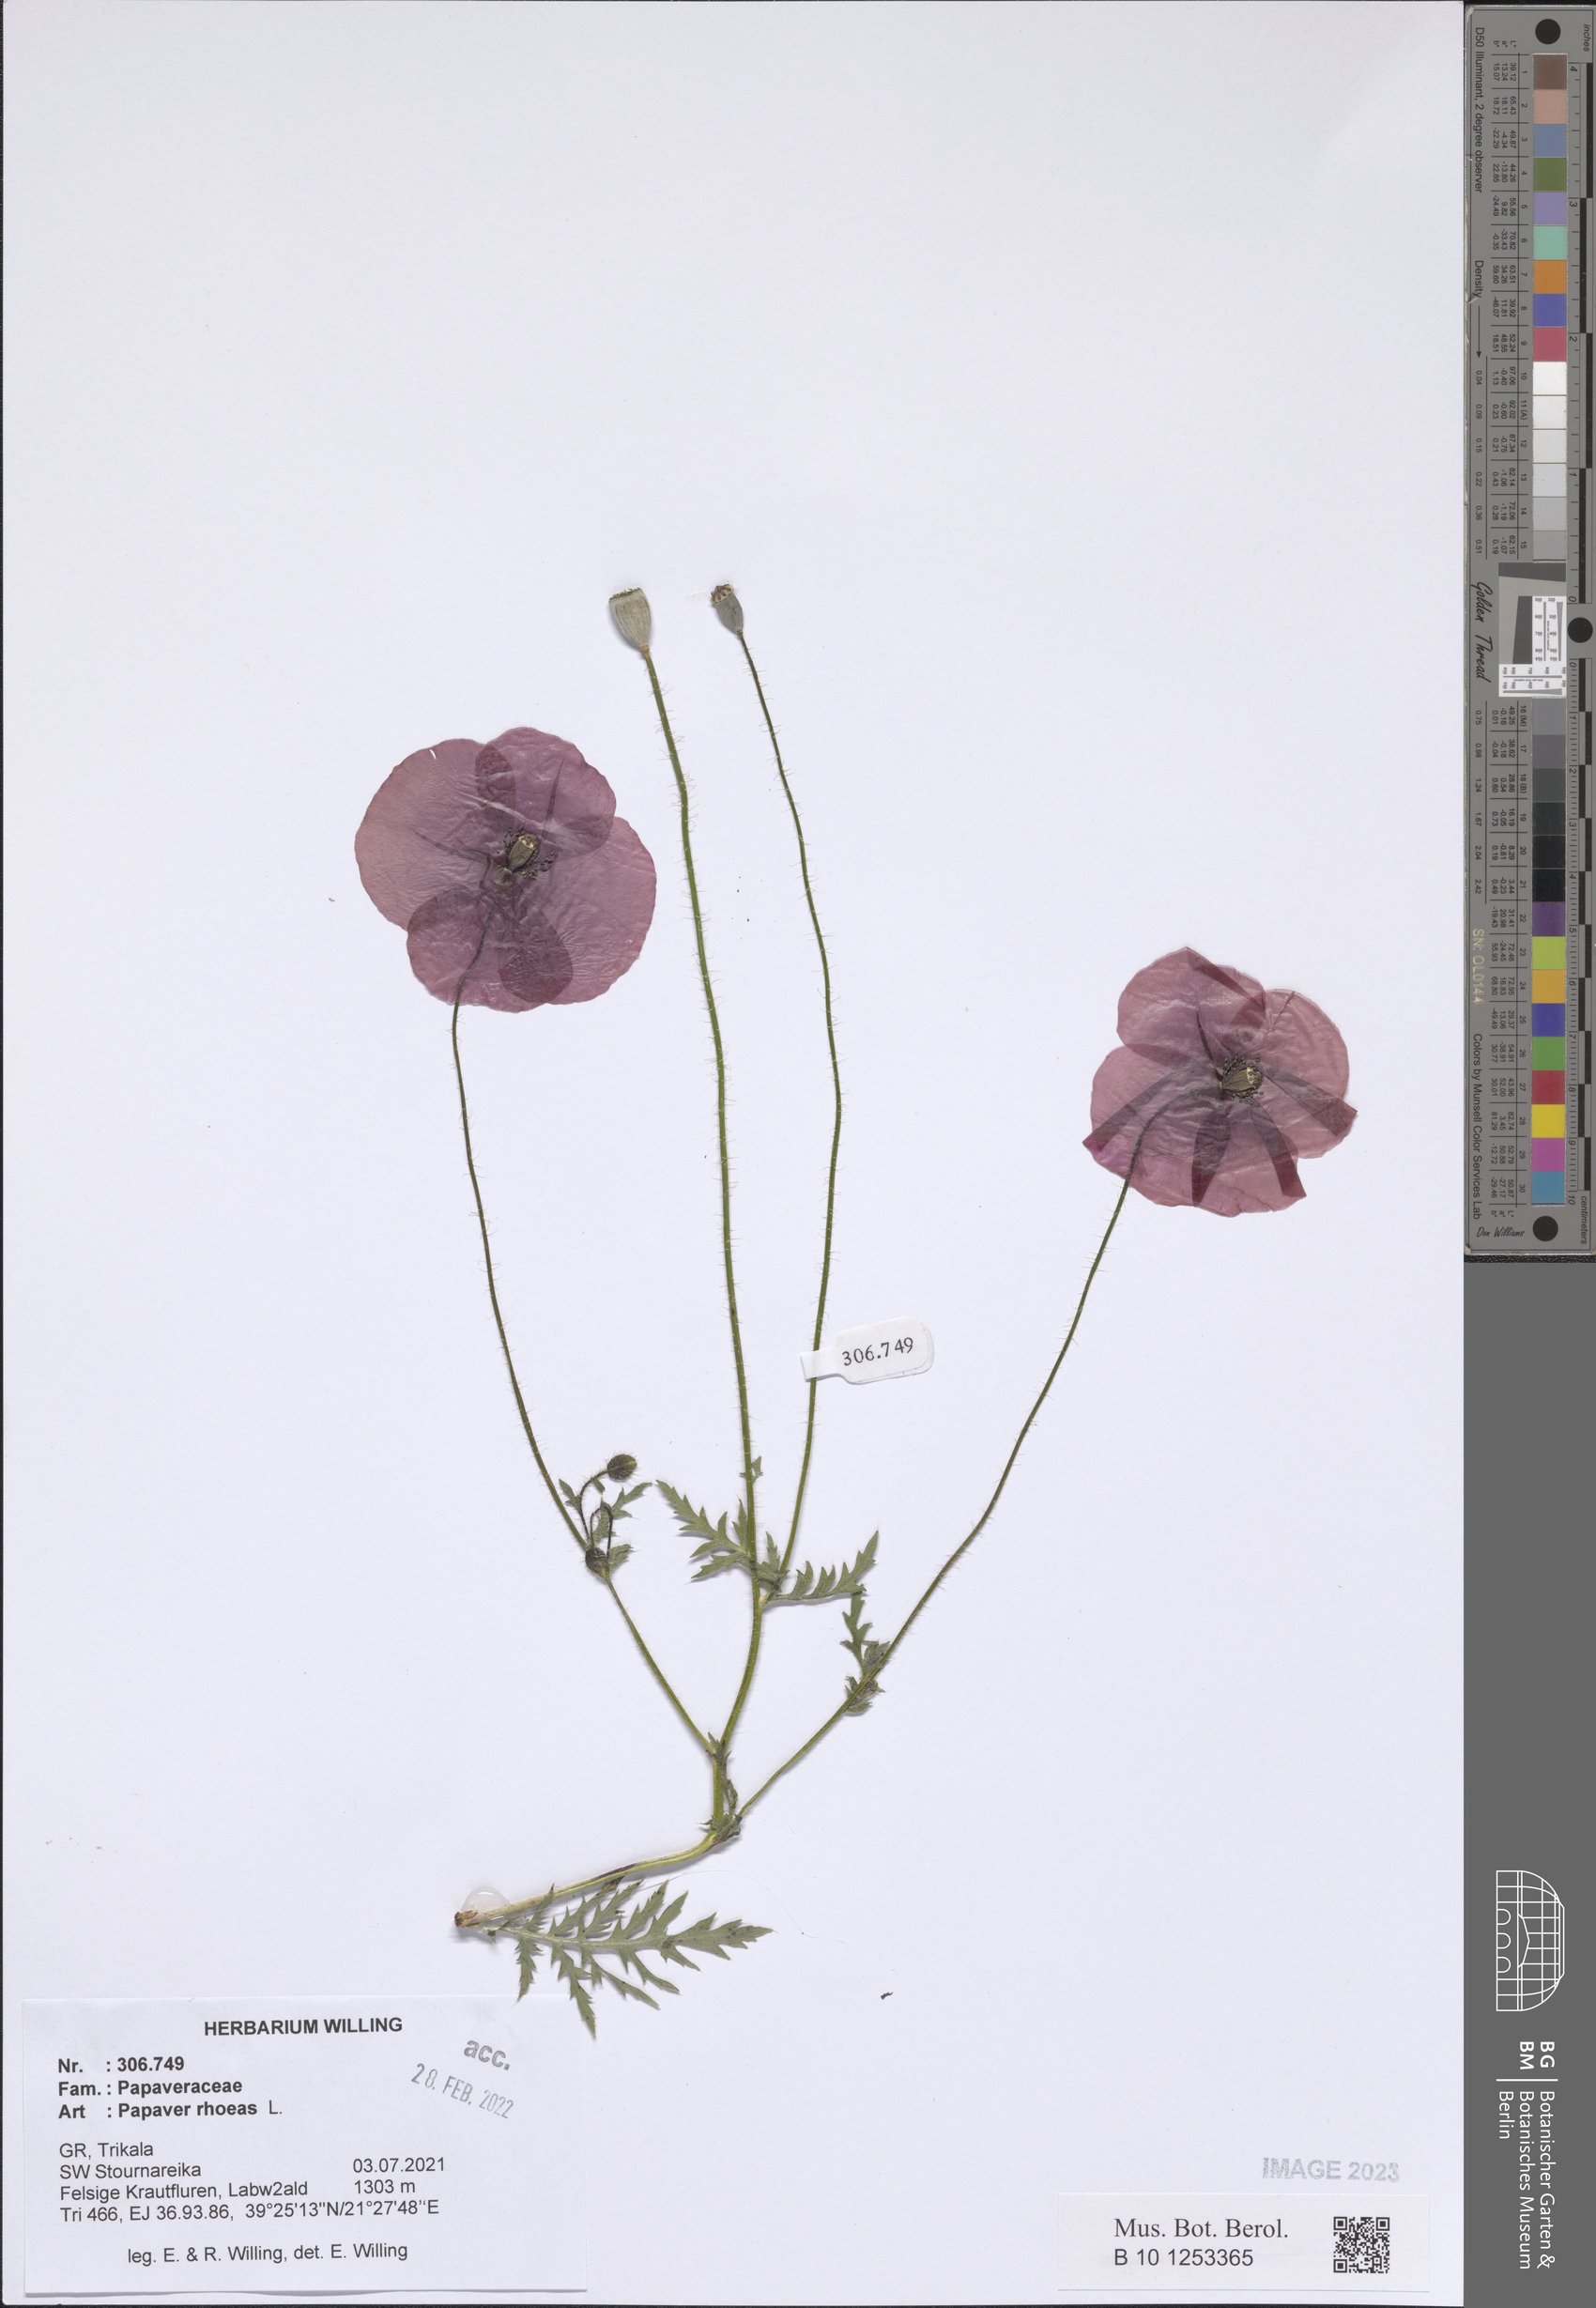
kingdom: Plantae
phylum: Tracheophyta
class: Magnoliopsida
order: Ranunculales
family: Papaveraceae
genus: Papaver
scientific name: Papaver rhoeas
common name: Corn poppy
